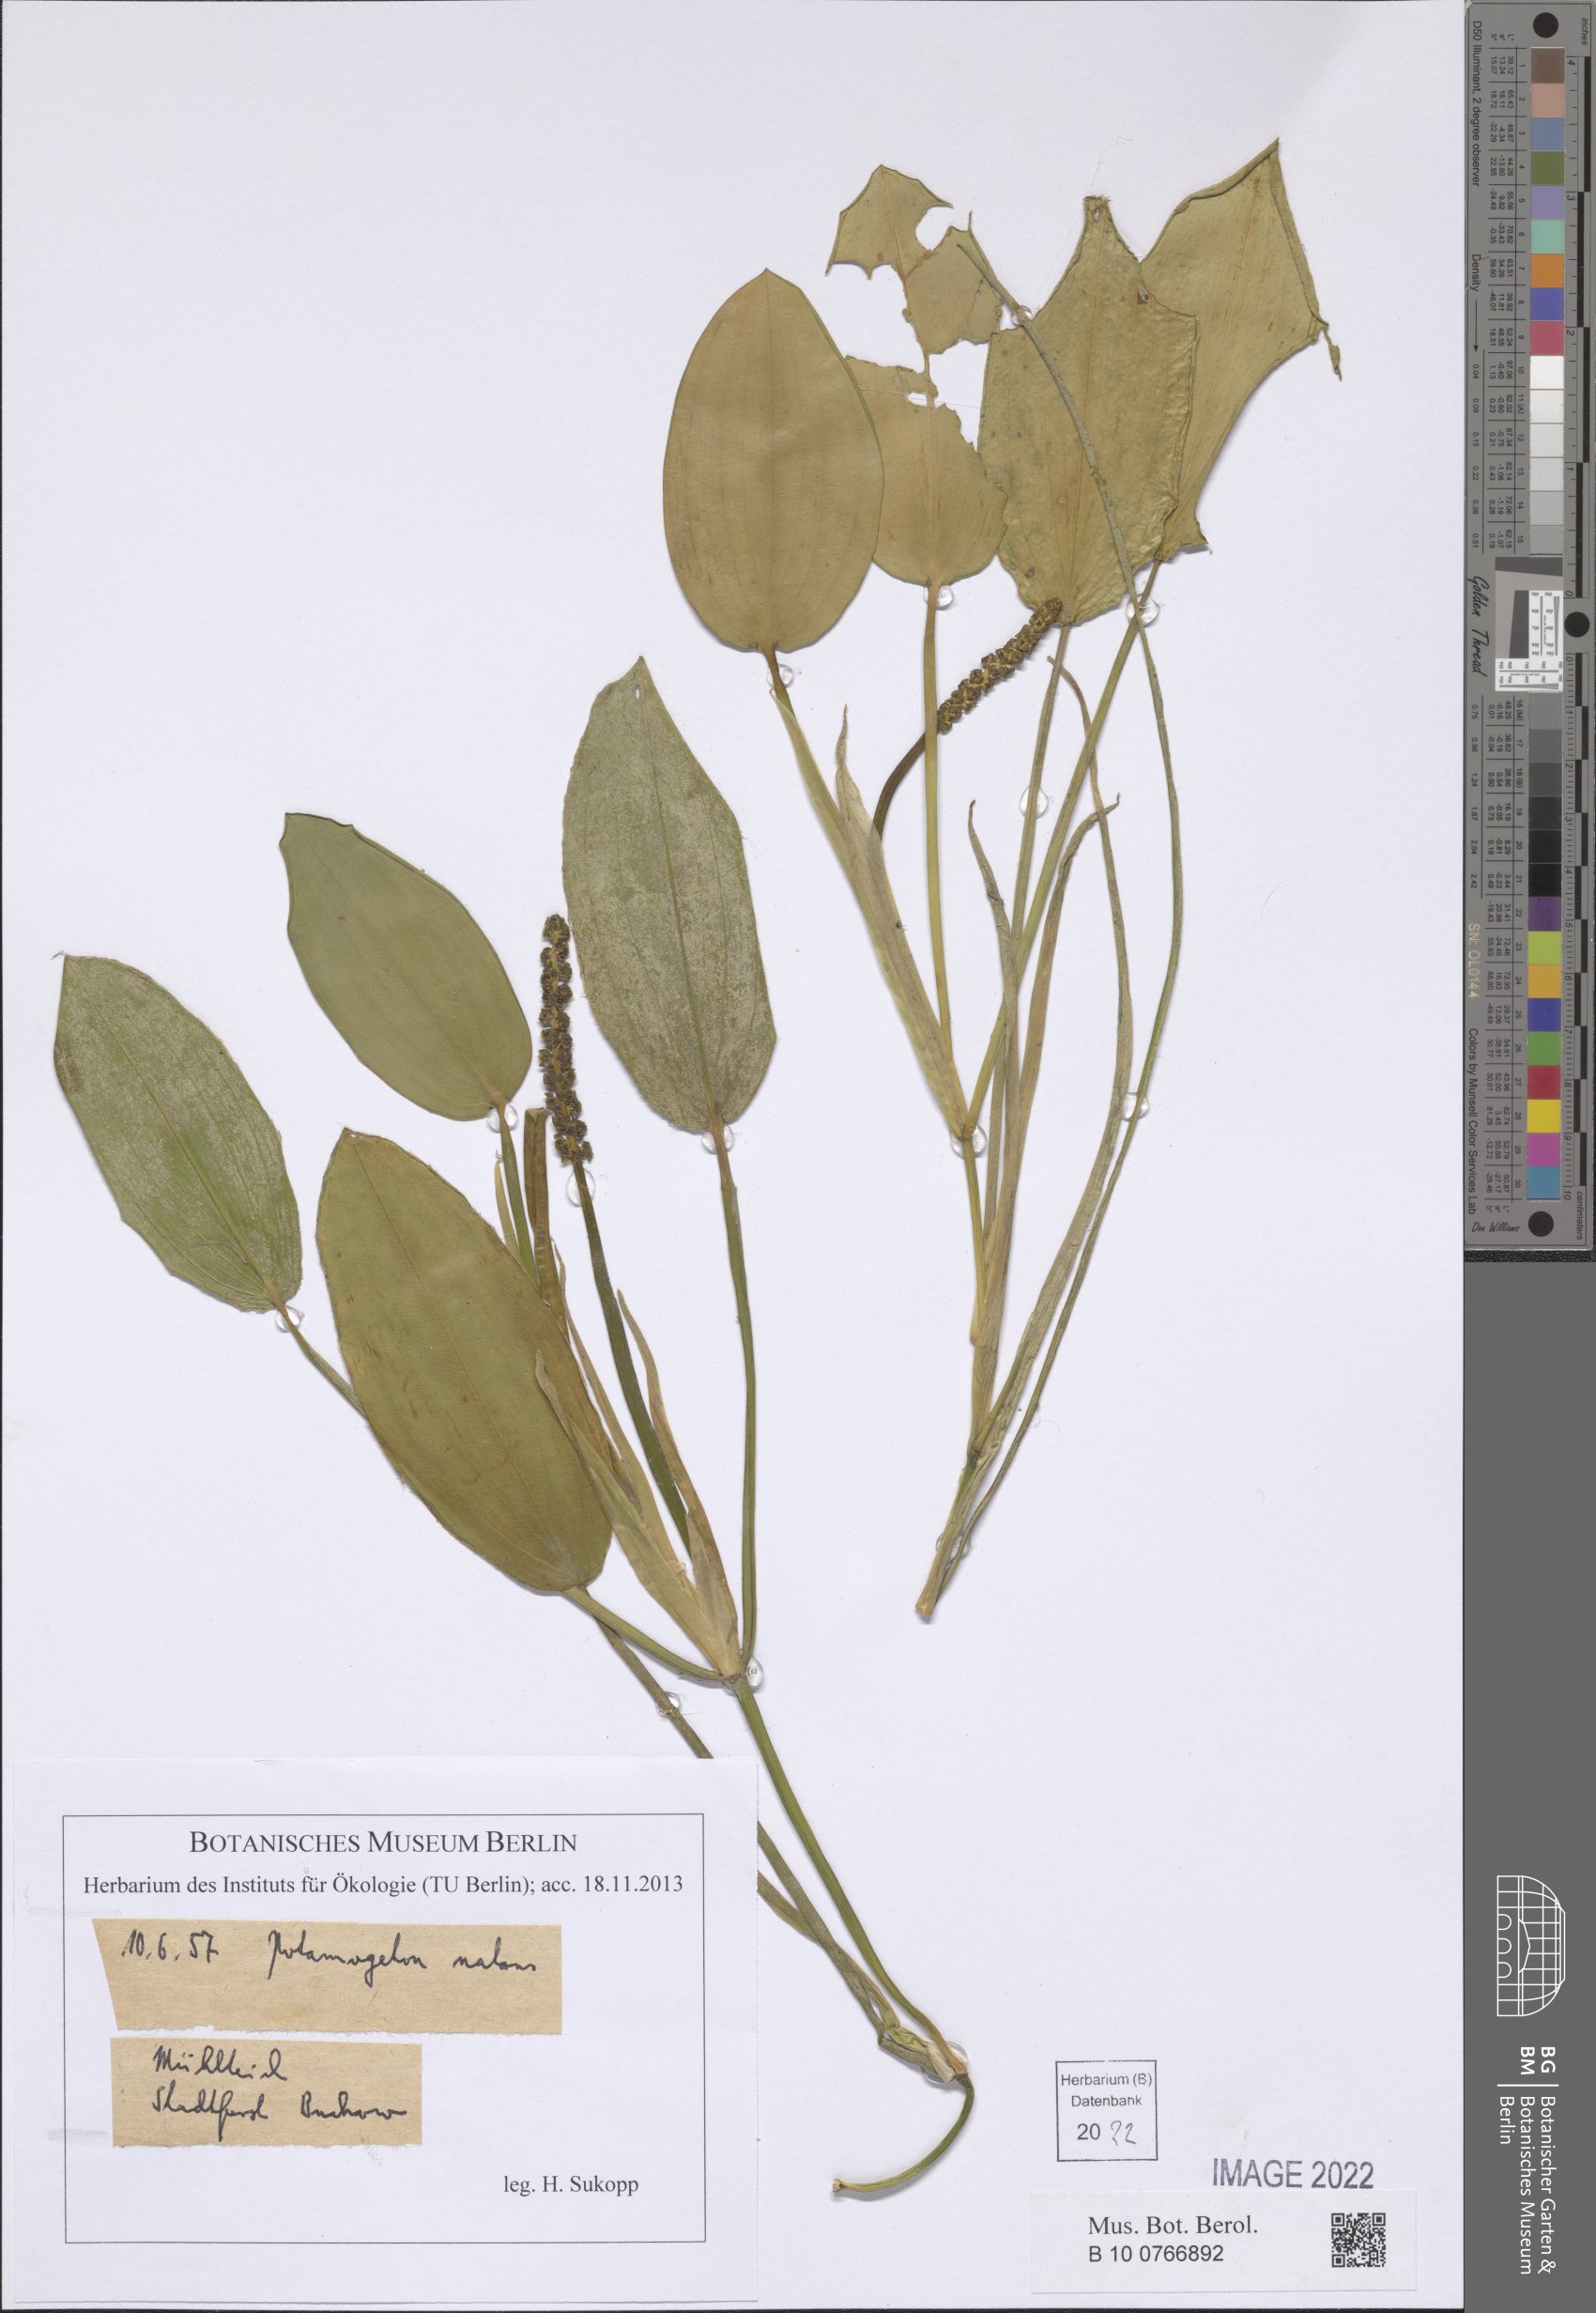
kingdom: Plantae
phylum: Tracheophyta
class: Liliopsida
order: Alismatales
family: Potamogetonaceae
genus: Potamogeton
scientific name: Potamogeton natans
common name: Broad-leaved pondweed
